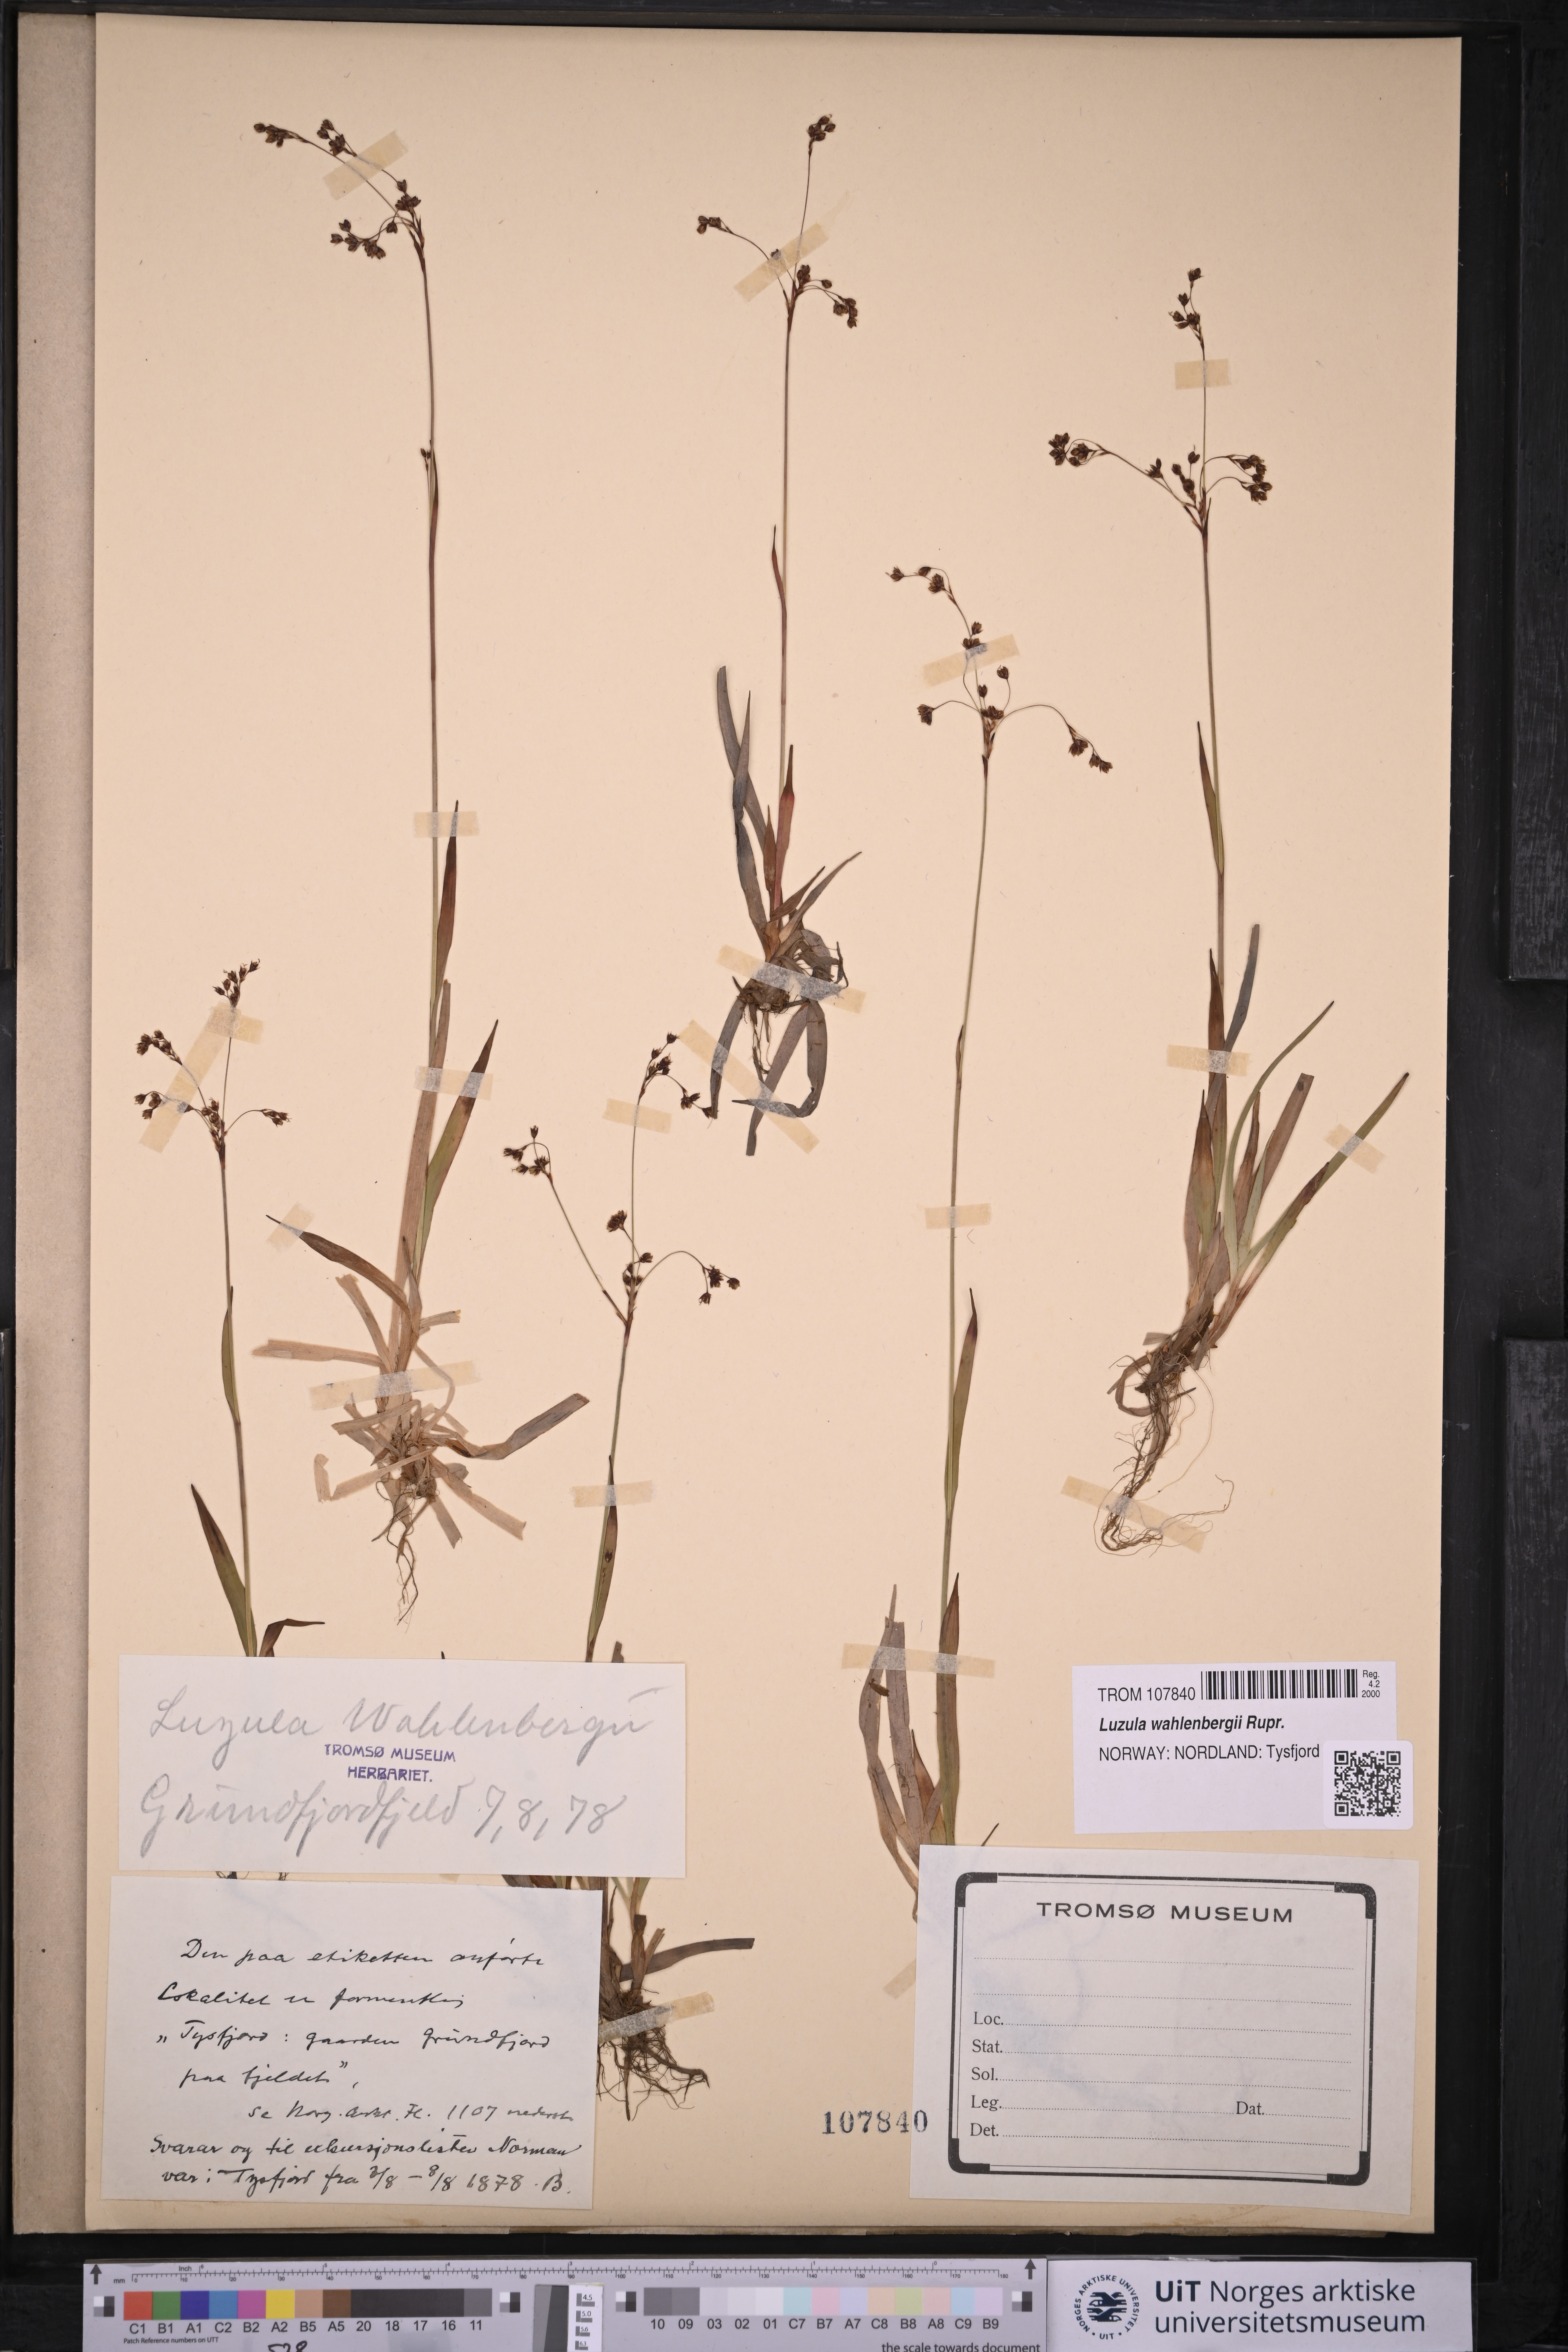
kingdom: Plantae
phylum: Tracheophyta
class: Liliopsida
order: Poales
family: Juncaceae
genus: Luzula
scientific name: Luzula wahlenbergii
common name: Wahlenberg's wood-rush
